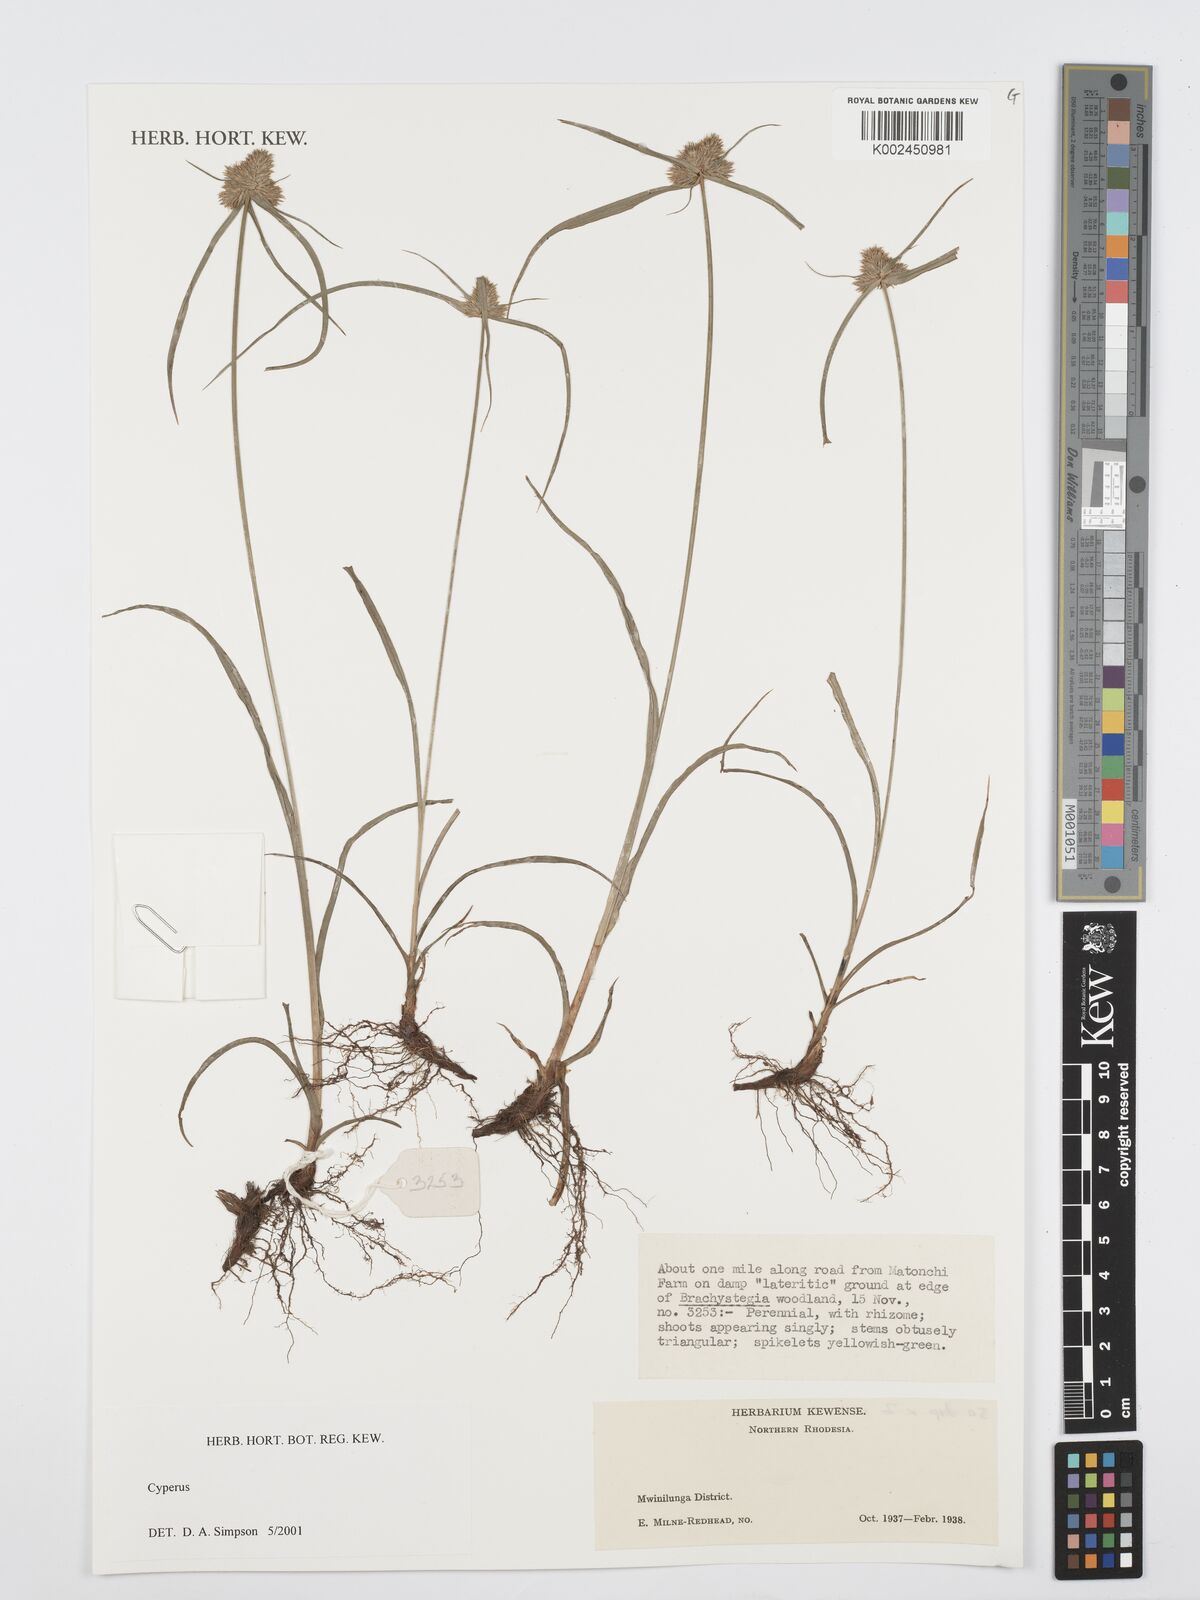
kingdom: Plantae
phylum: Tracheophyta
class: Liliopsida
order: Poales
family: Cyperaceae
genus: Cyperus
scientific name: Cyperus
